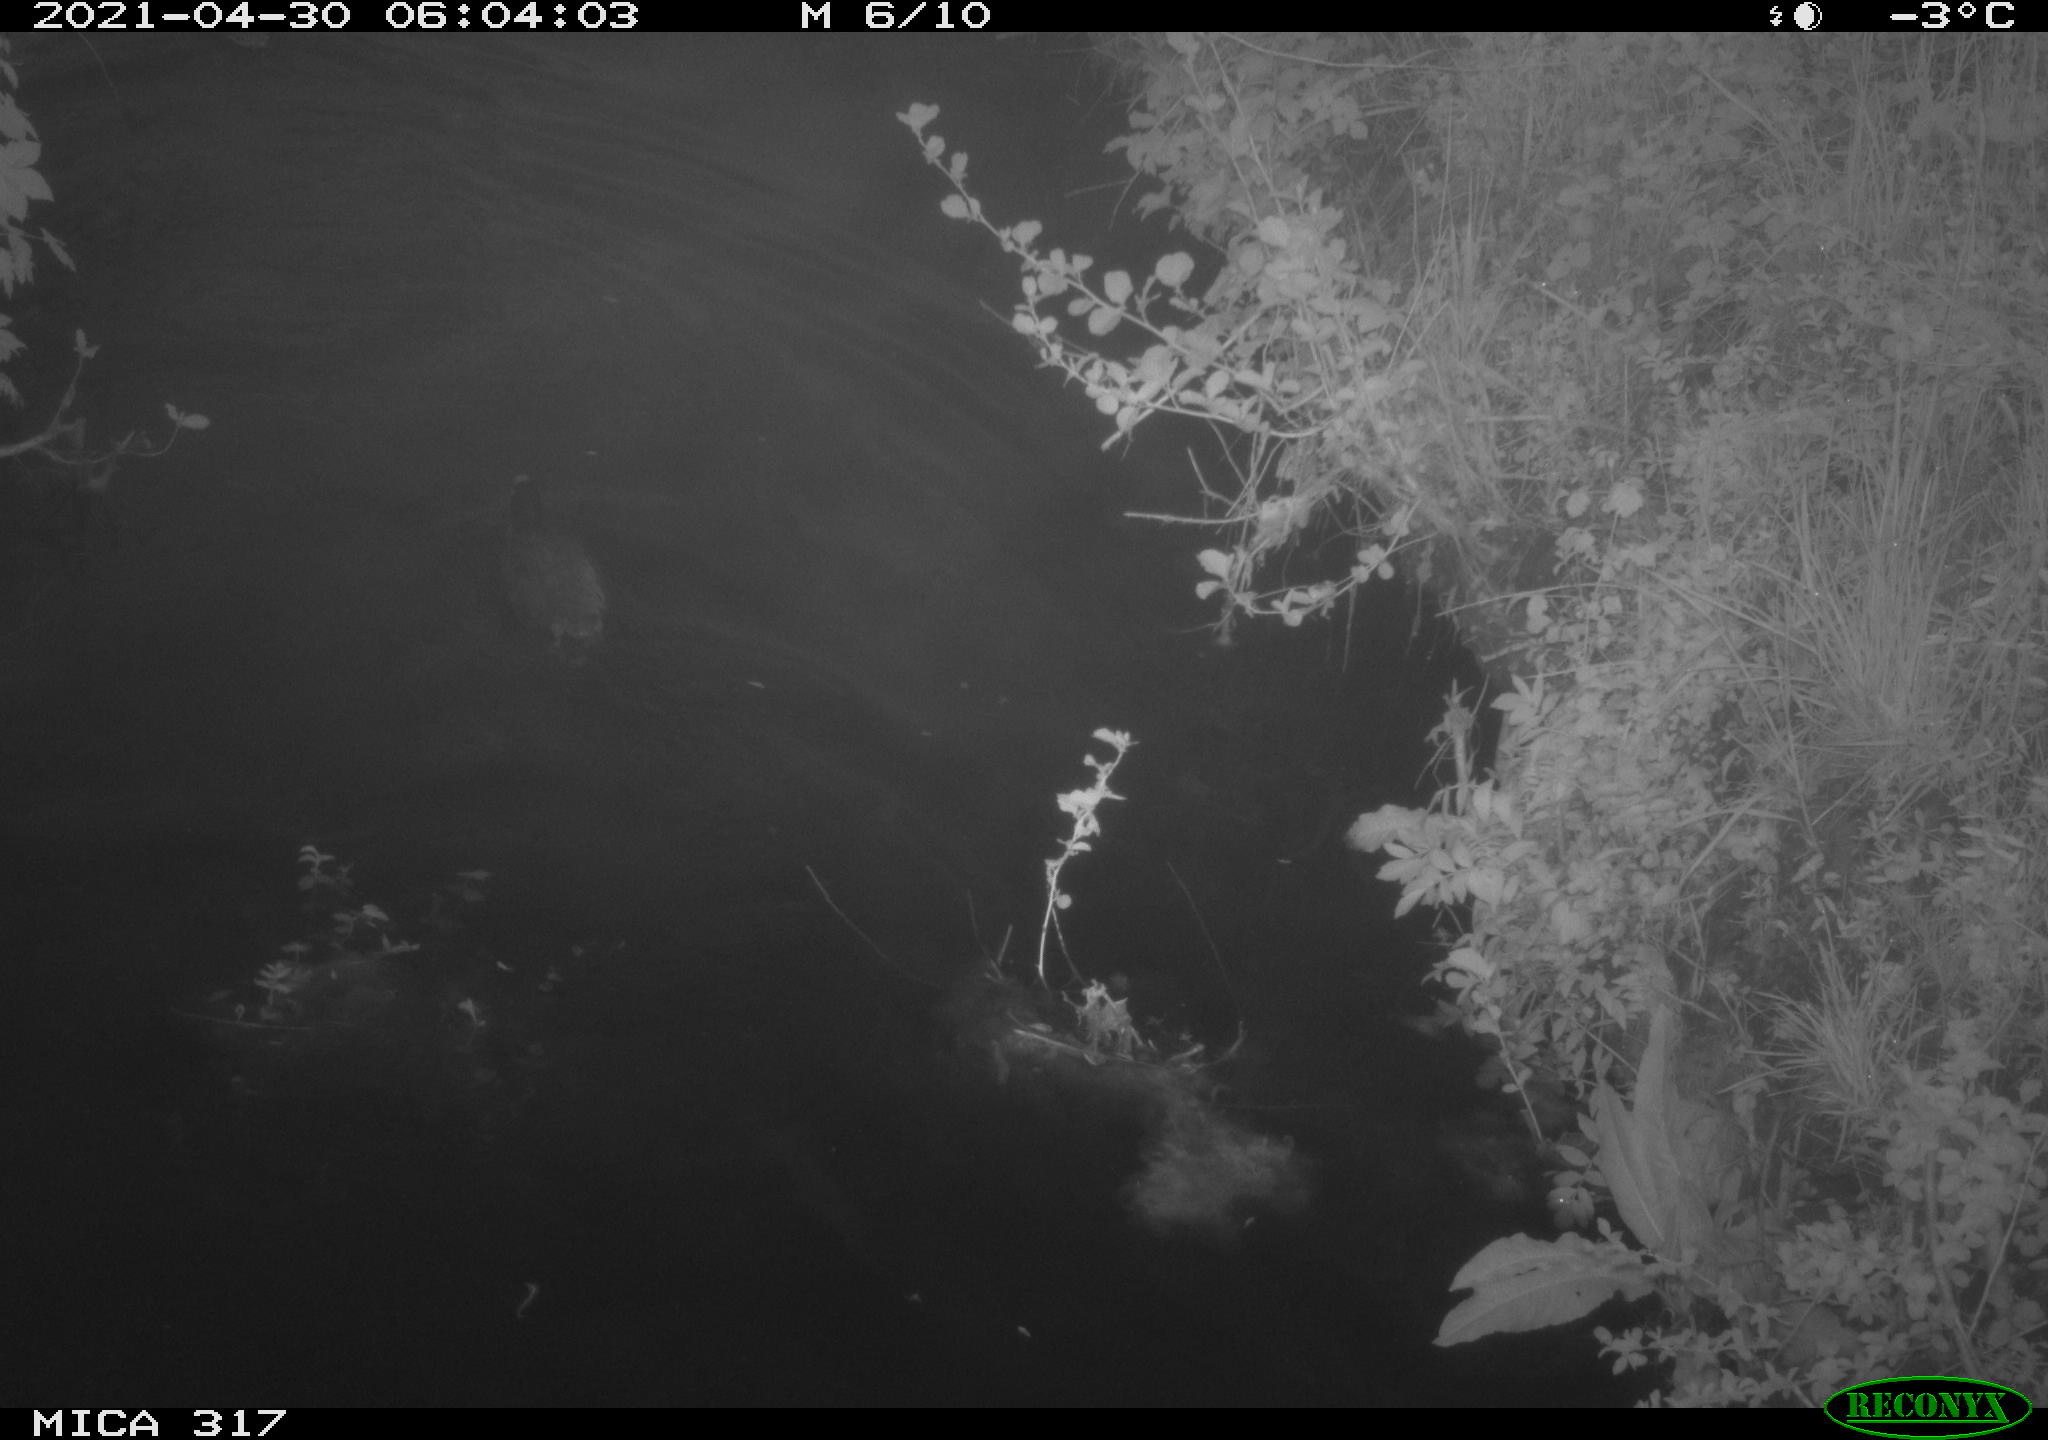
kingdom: Animalia
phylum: Chordata
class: Aves
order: Anseriformes
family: Anatidae
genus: Anas
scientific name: Anas
